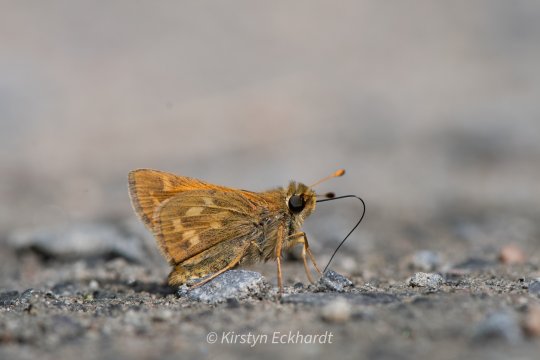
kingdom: Animalia
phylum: Arthropoda
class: Insecta
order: Lepidoptera
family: Hesperiidae
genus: Hesperia
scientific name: Hesperia sassacus
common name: Sassacus Skipper
